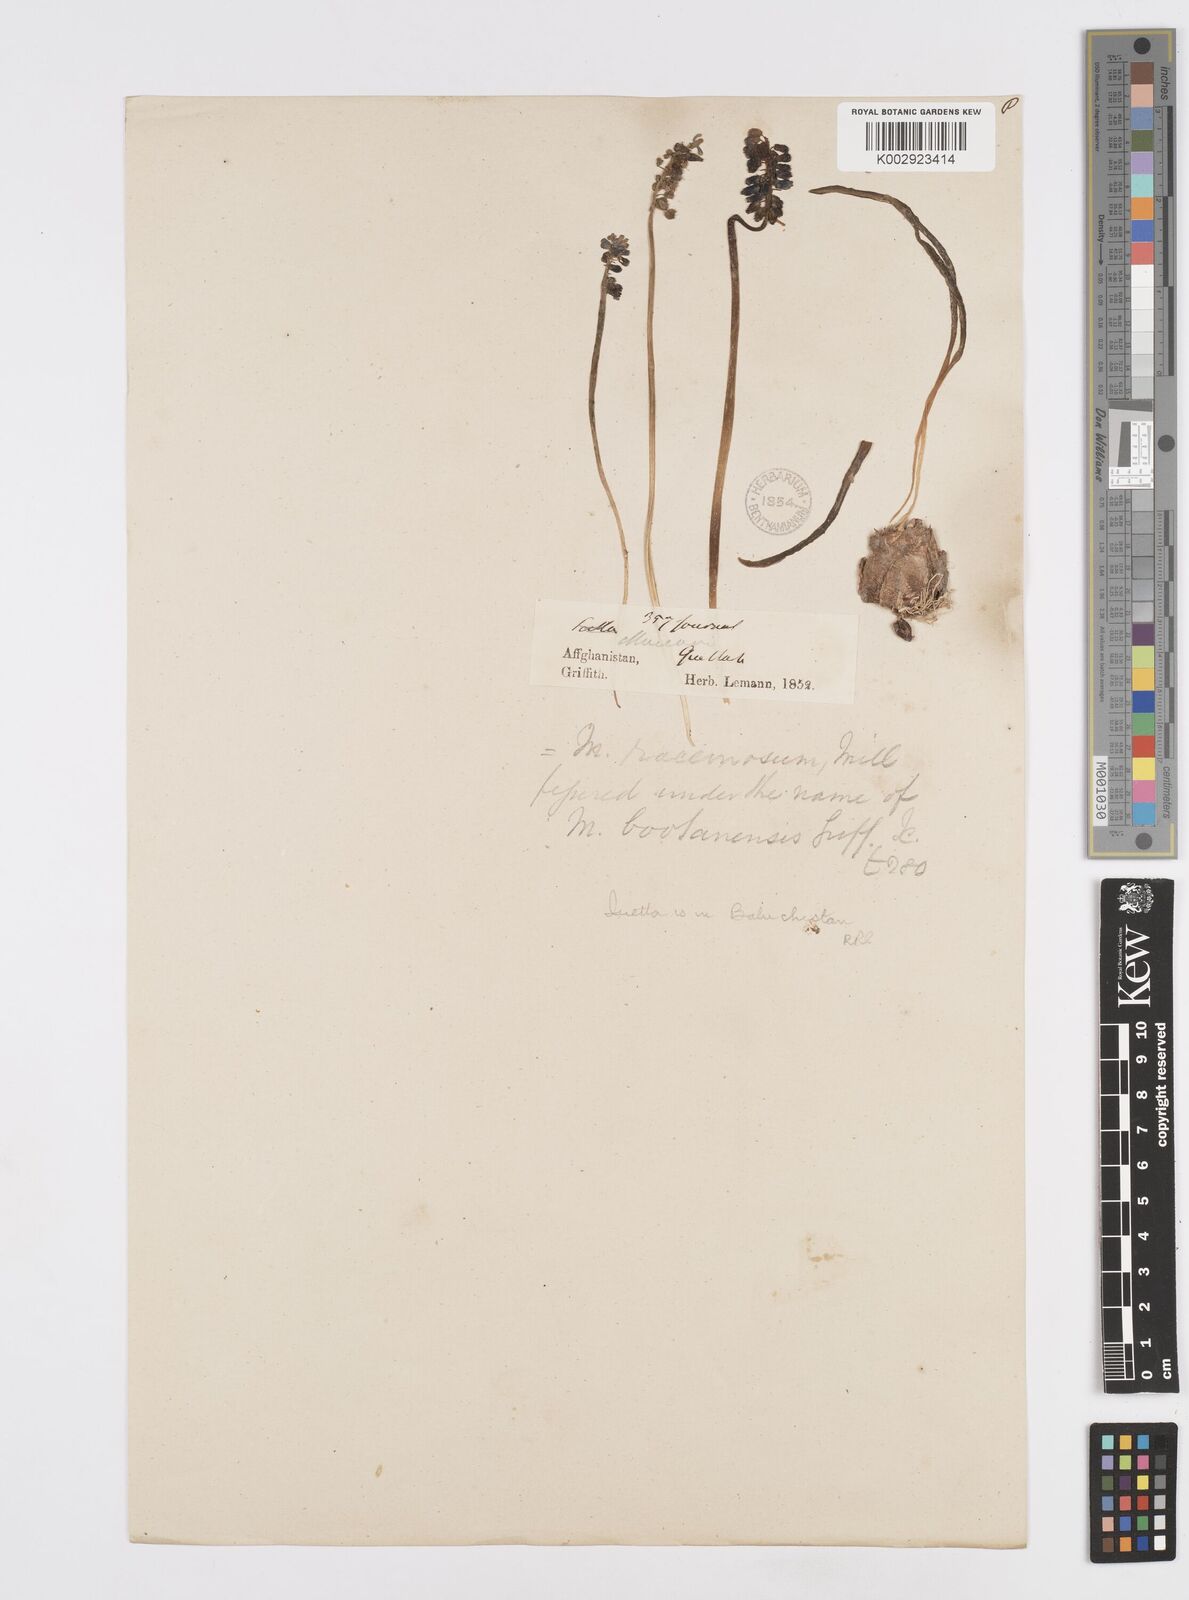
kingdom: Plantae
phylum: Tracheophyta
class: Liliopsida
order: Asparagales
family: Asparagaceae
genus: Muscari
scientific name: Muscari neglectum
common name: Grape-hyacinth
